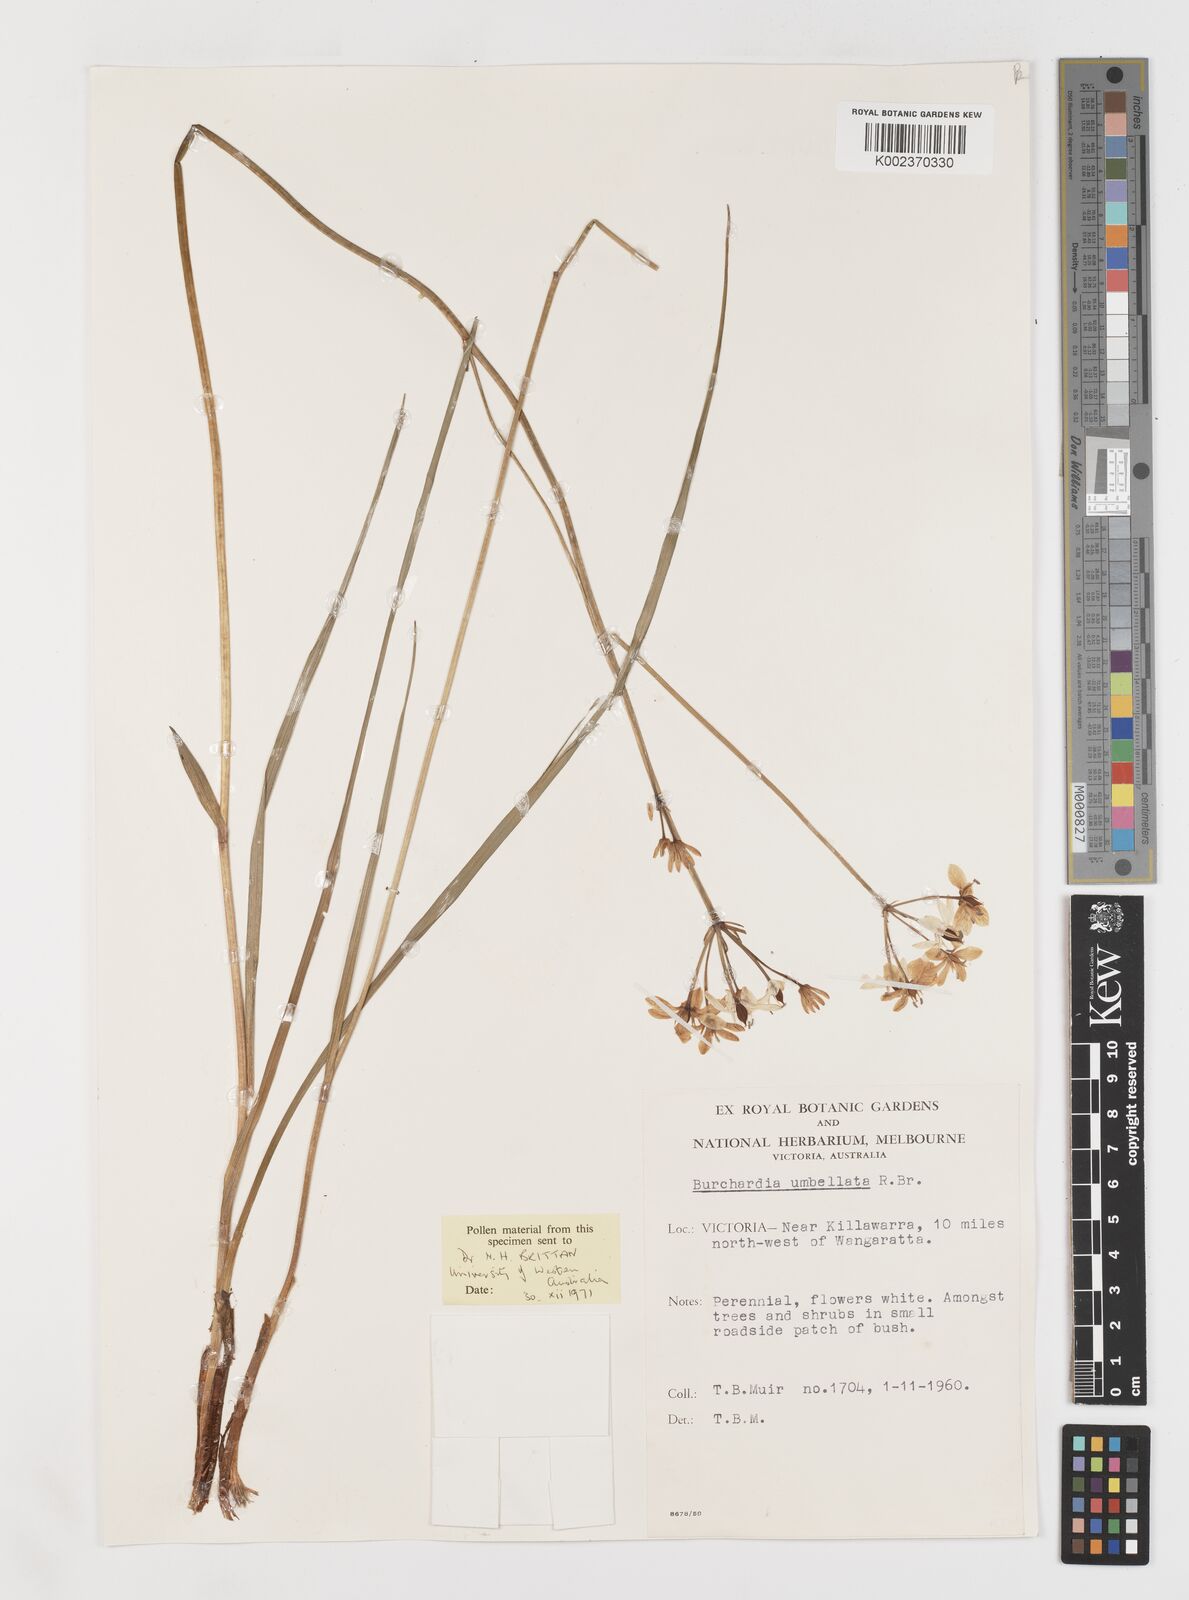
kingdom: Plantae
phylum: Tracheophyta
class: Liliopsida
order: Liliales
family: Colchicaceae
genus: Burchardia
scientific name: Burchardia umbellata
